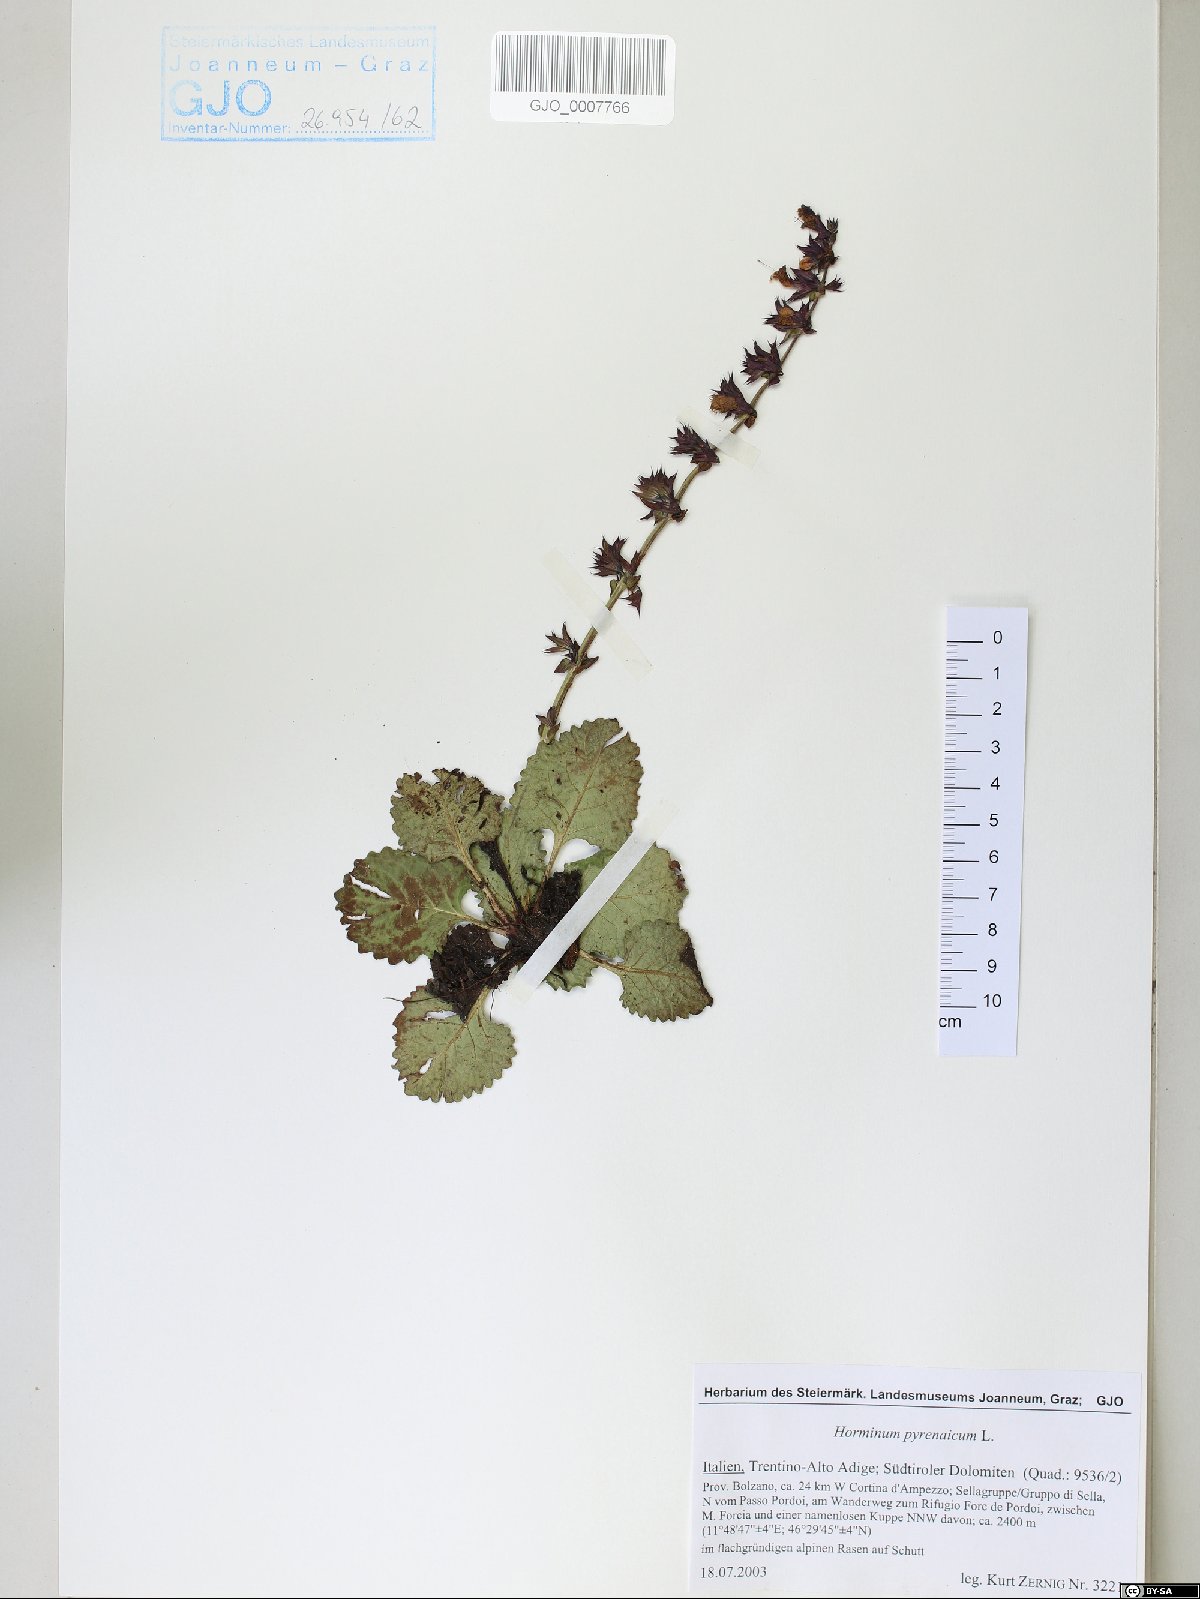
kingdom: Plantae
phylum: Tracheophyta
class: Magnoliopsida
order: Lamiales
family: Lamiaceae
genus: Horminum
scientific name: Horminum pyrenaicum
